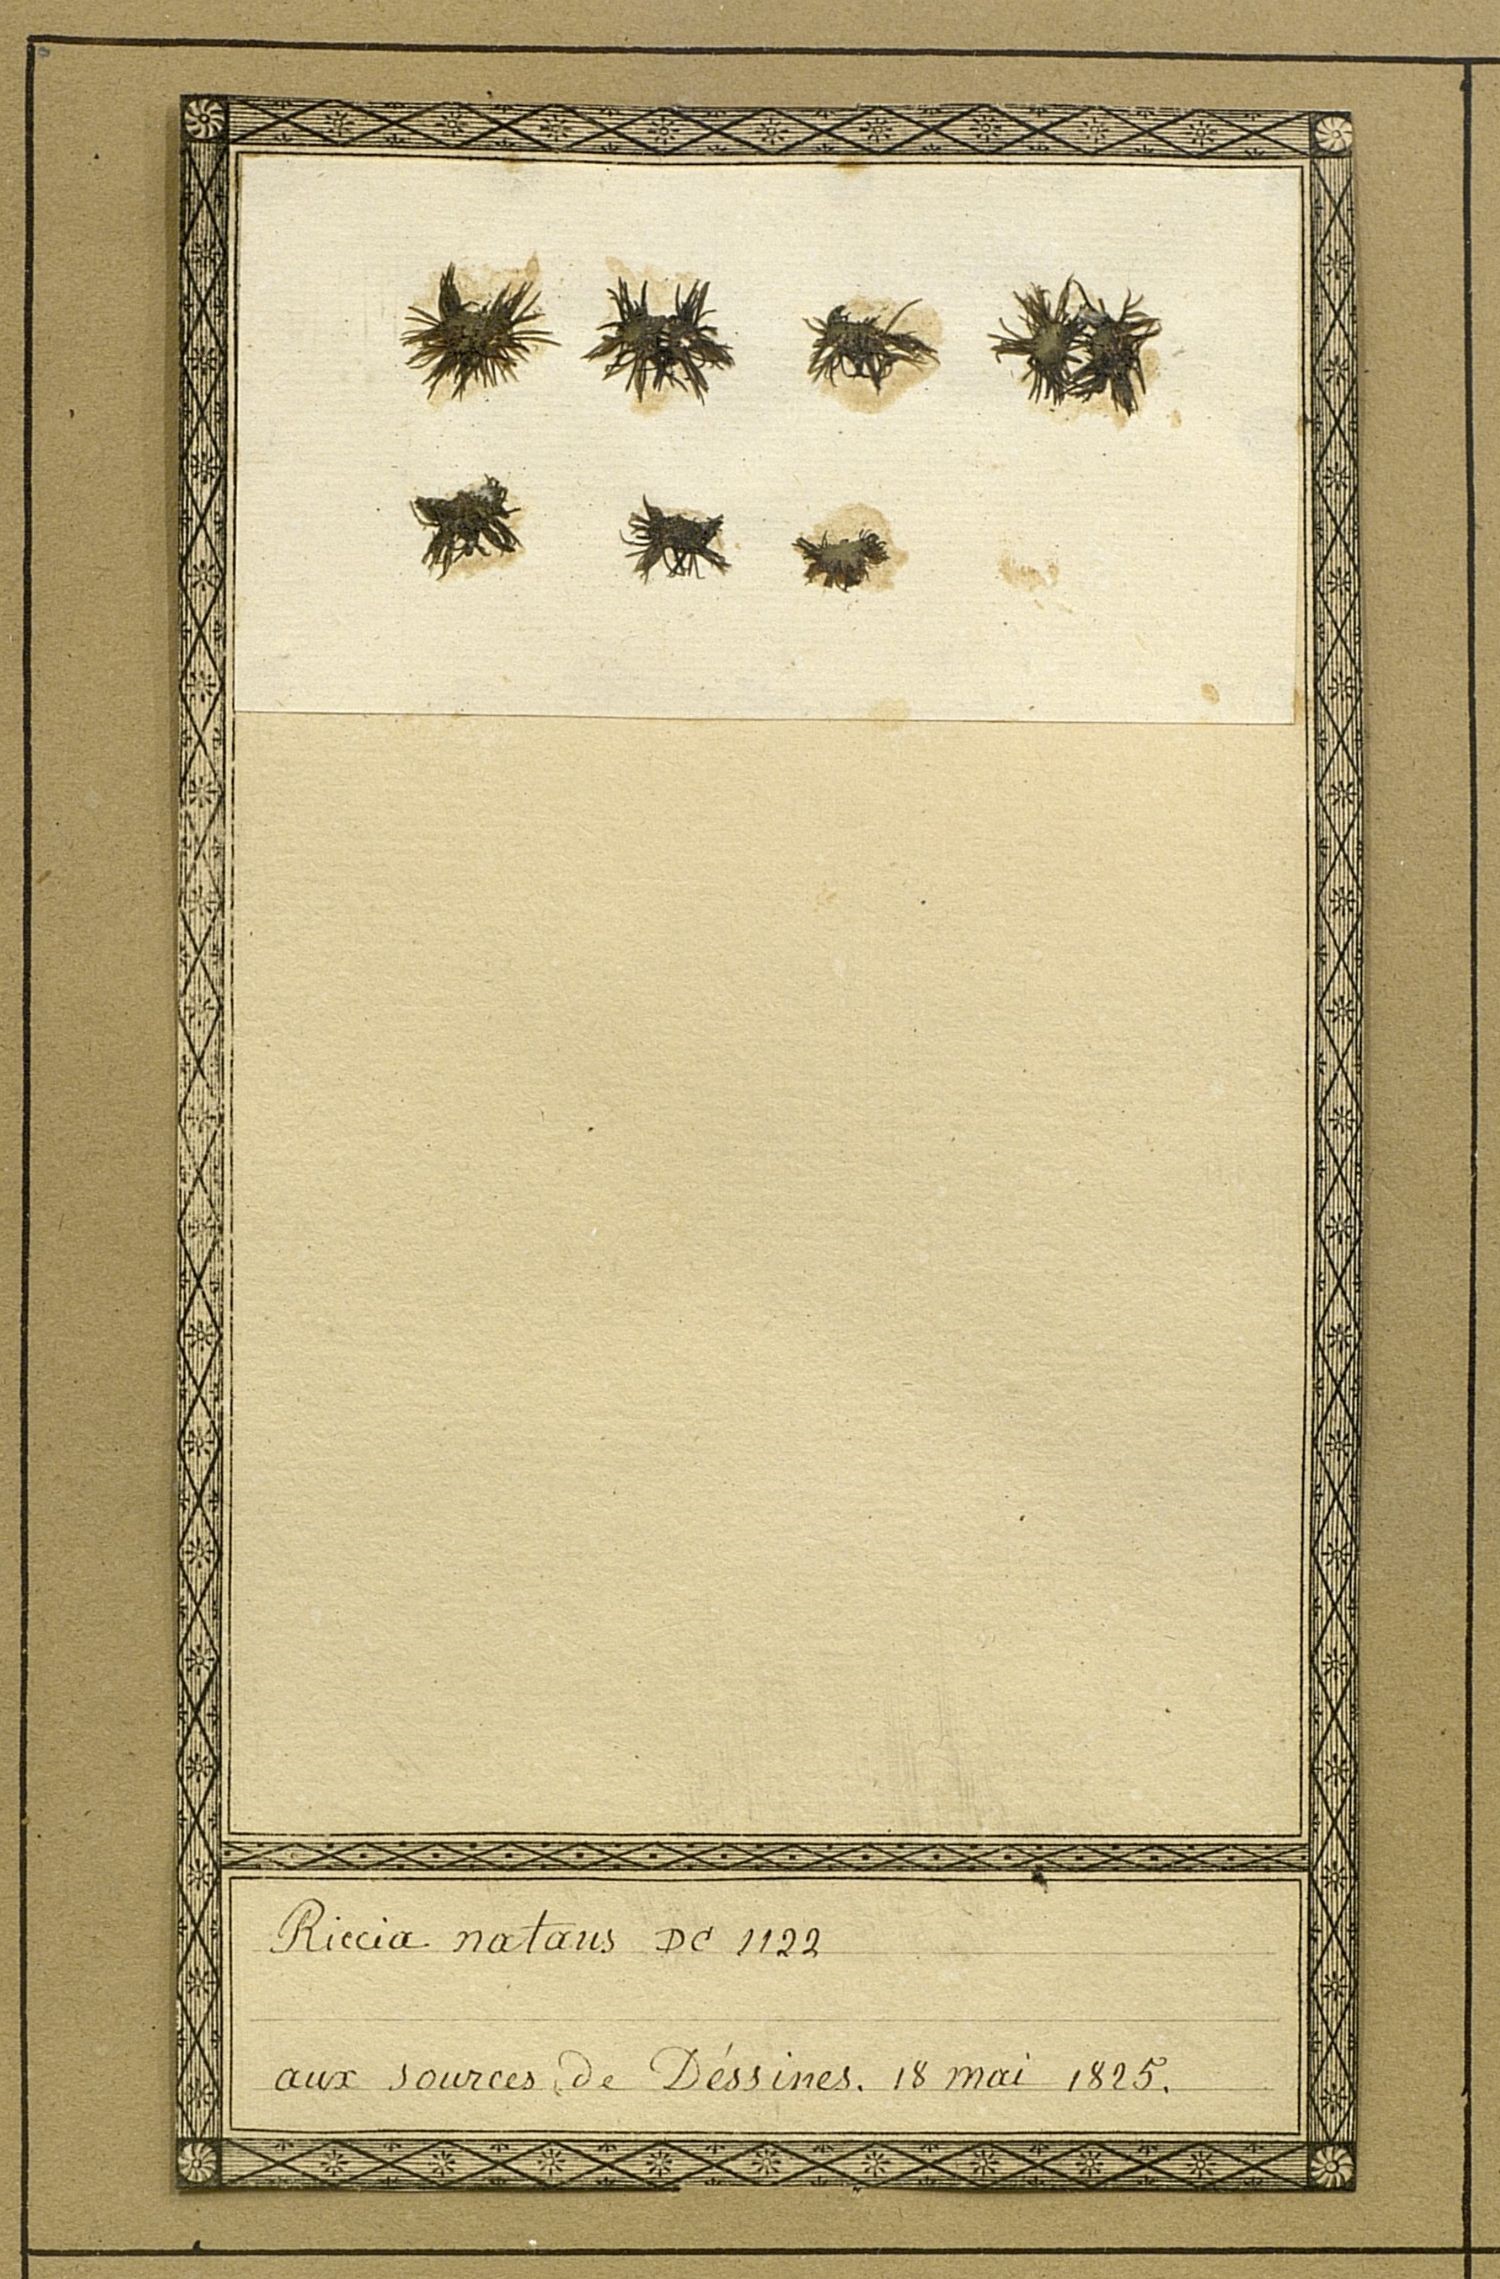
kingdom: Plantae
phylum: Marchantiophyta
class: Marchantiopsida
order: Marchantiales
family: Ricciaceae
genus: Ricciocarpos
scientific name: Ricciocarpos natans
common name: Purple-fringed liverwort
